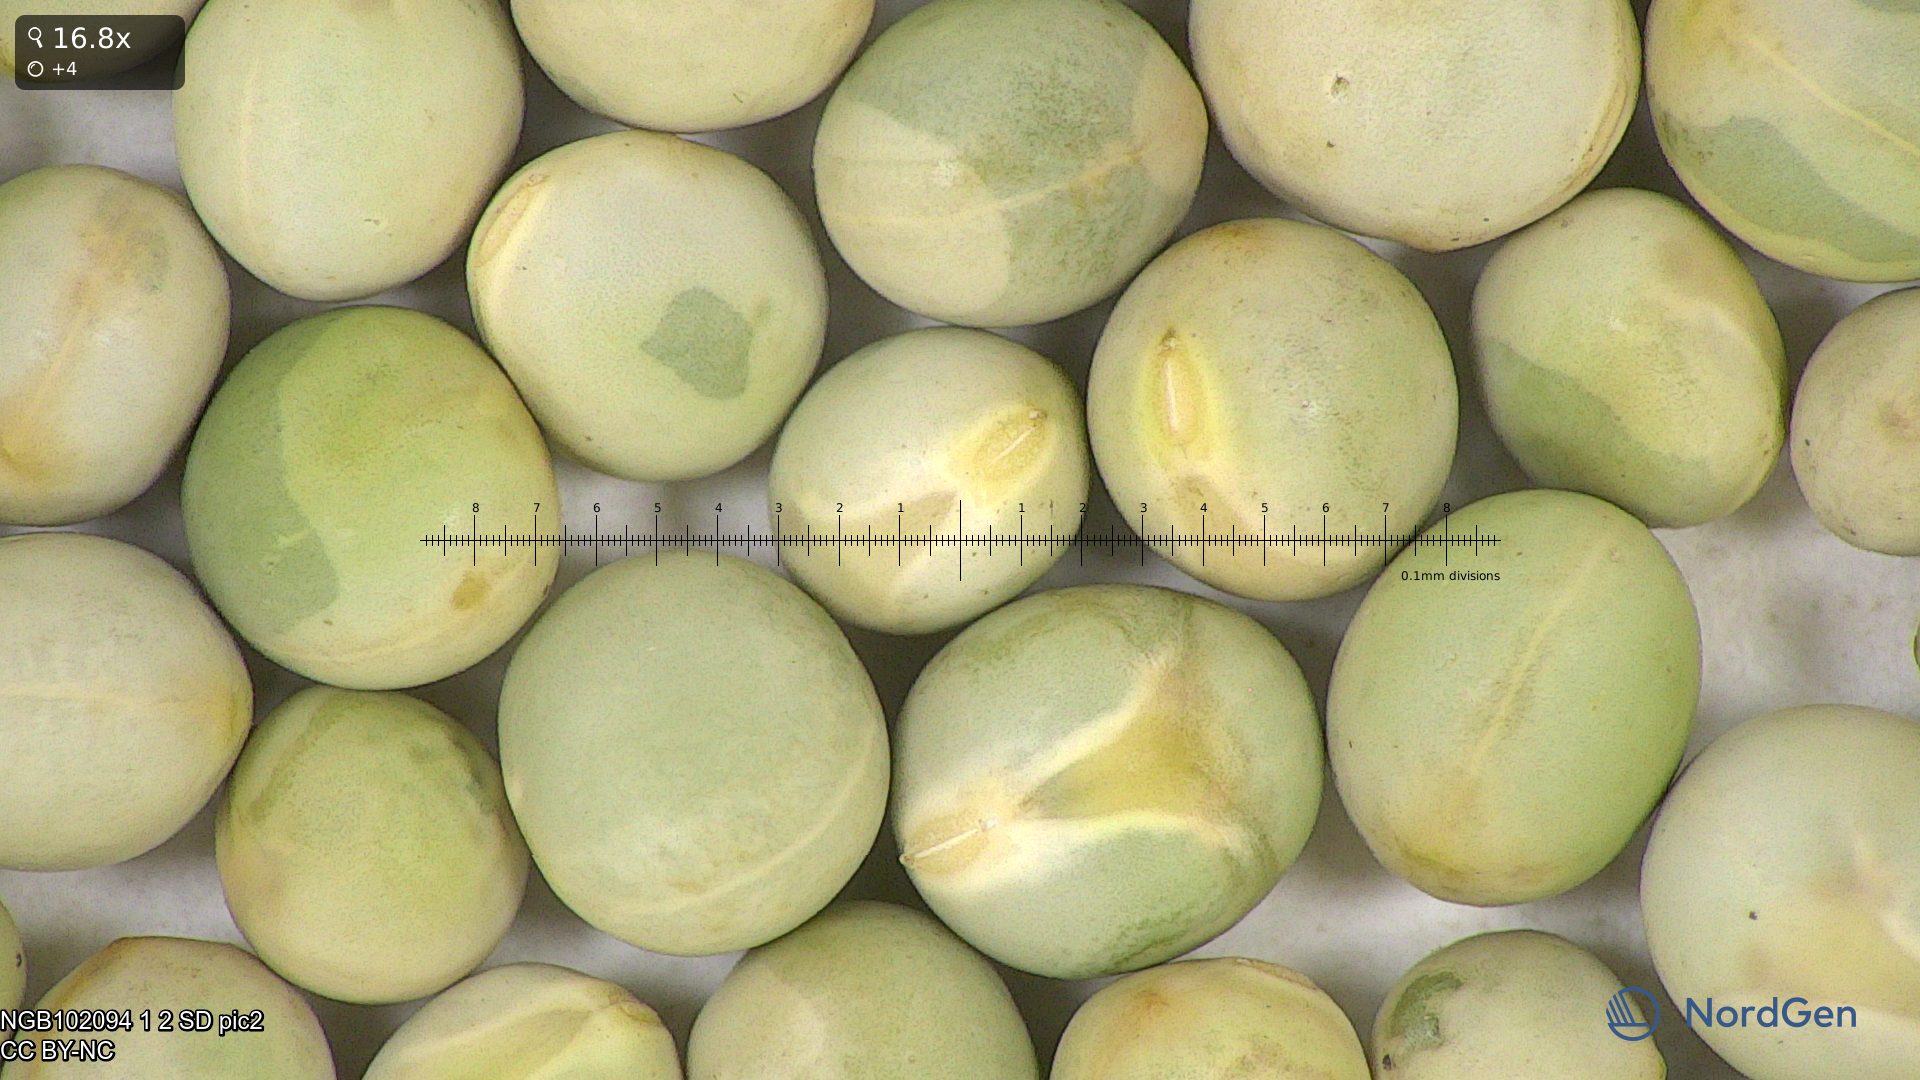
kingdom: Plantae
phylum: Tracheophyta
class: Magnoliopsida
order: Fabales
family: Fabaceae
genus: Lathyrus
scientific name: Lathyrus oleraceus
